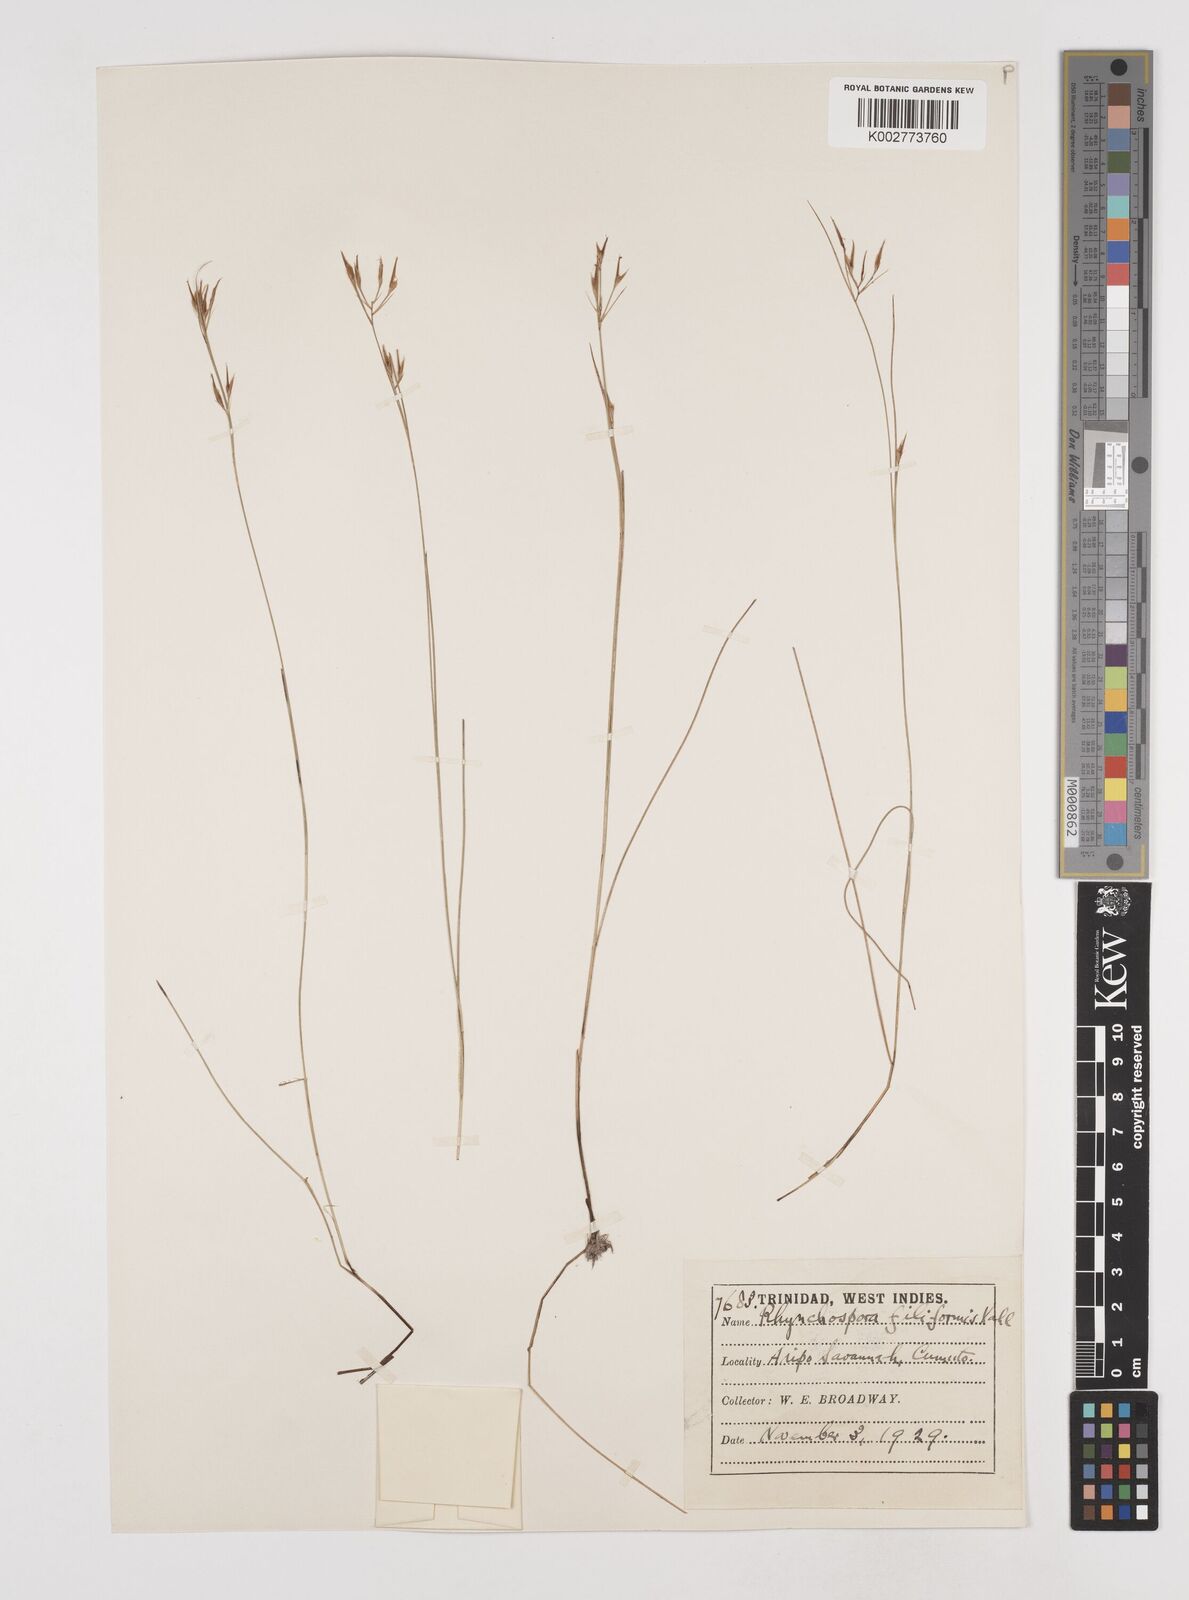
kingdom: Plantae
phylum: Tracheophyta
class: Liliopsida
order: Poales
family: Cyperaceae
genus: Rhynchospora
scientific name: Rhynchospora filiformis
